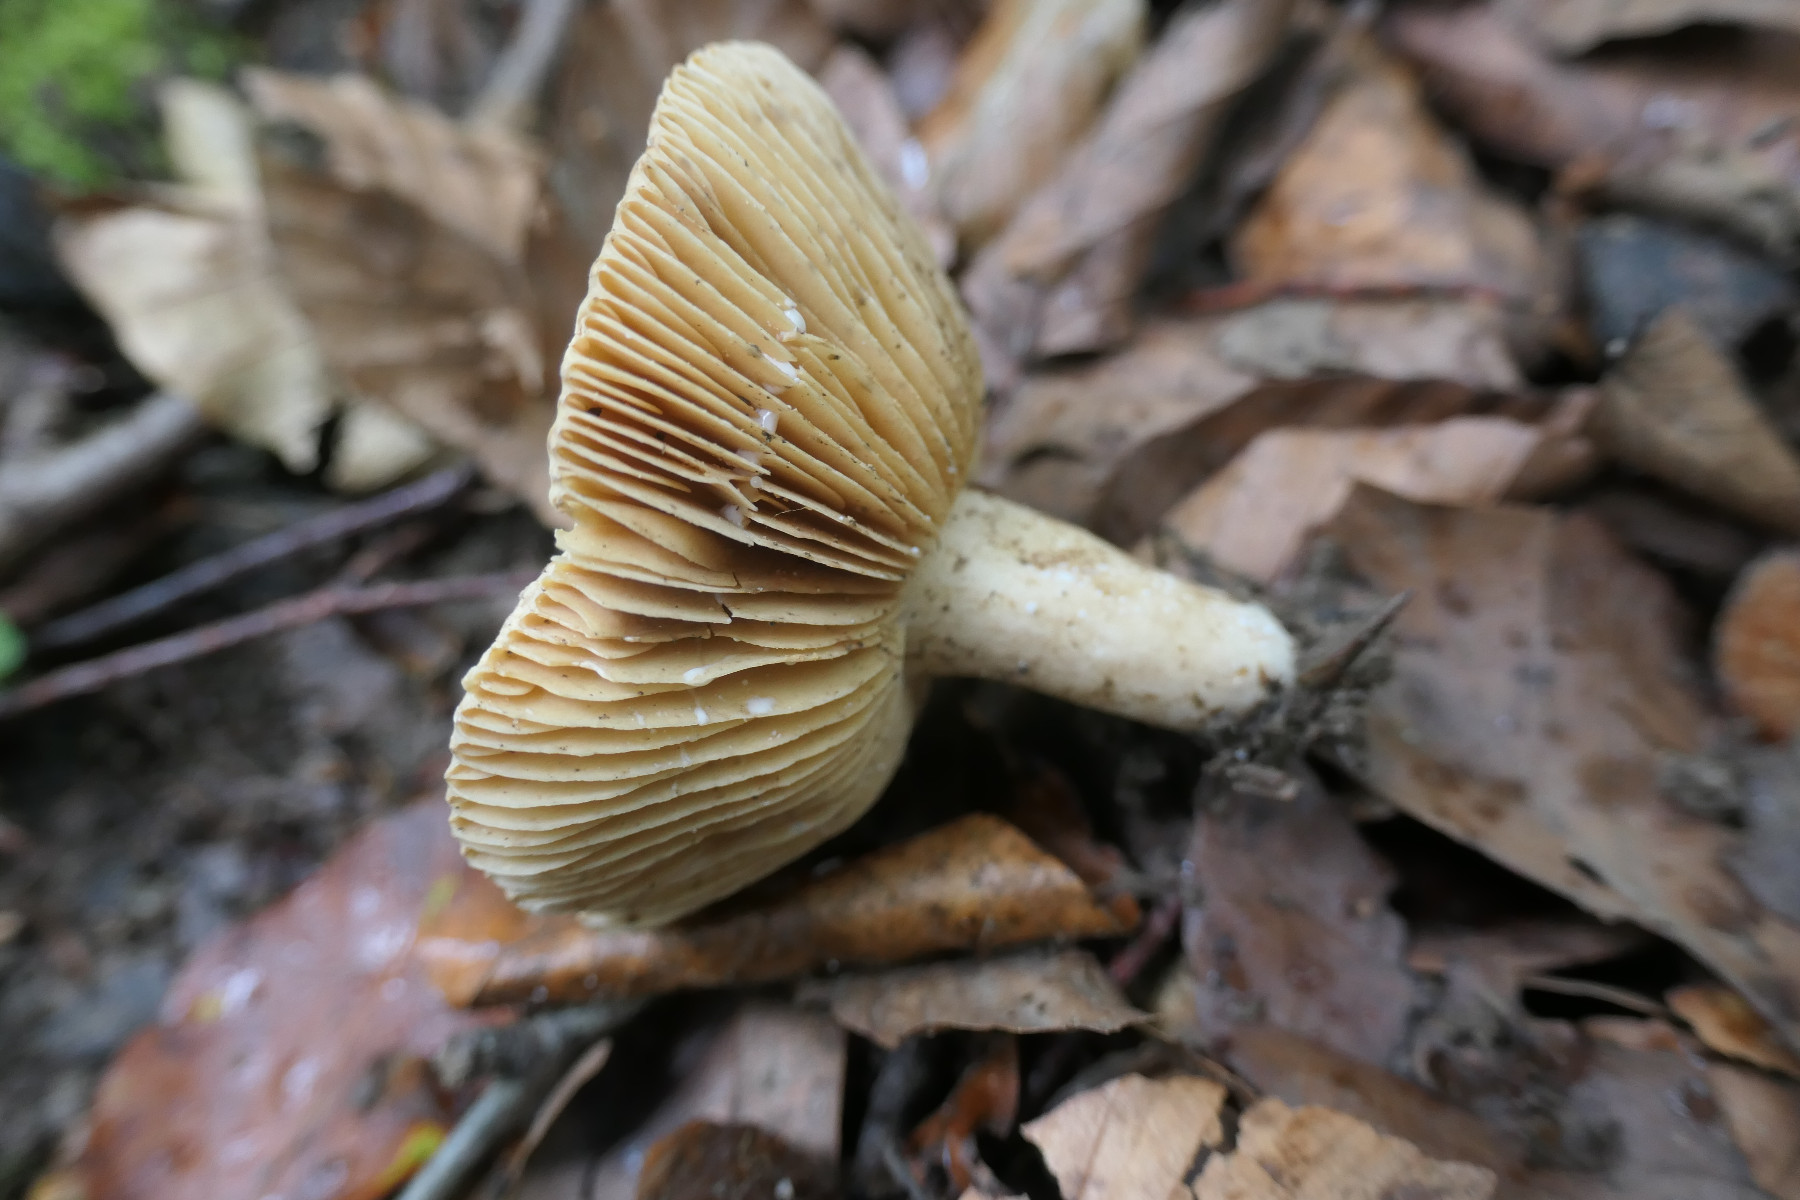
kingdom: Fungi
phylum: Basidiomycota
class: Agaricomycetes
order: Russulales
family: Russulaceae
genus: Lactarius
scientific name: Lactarius ruginosus
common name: gråbrun mælkehat
